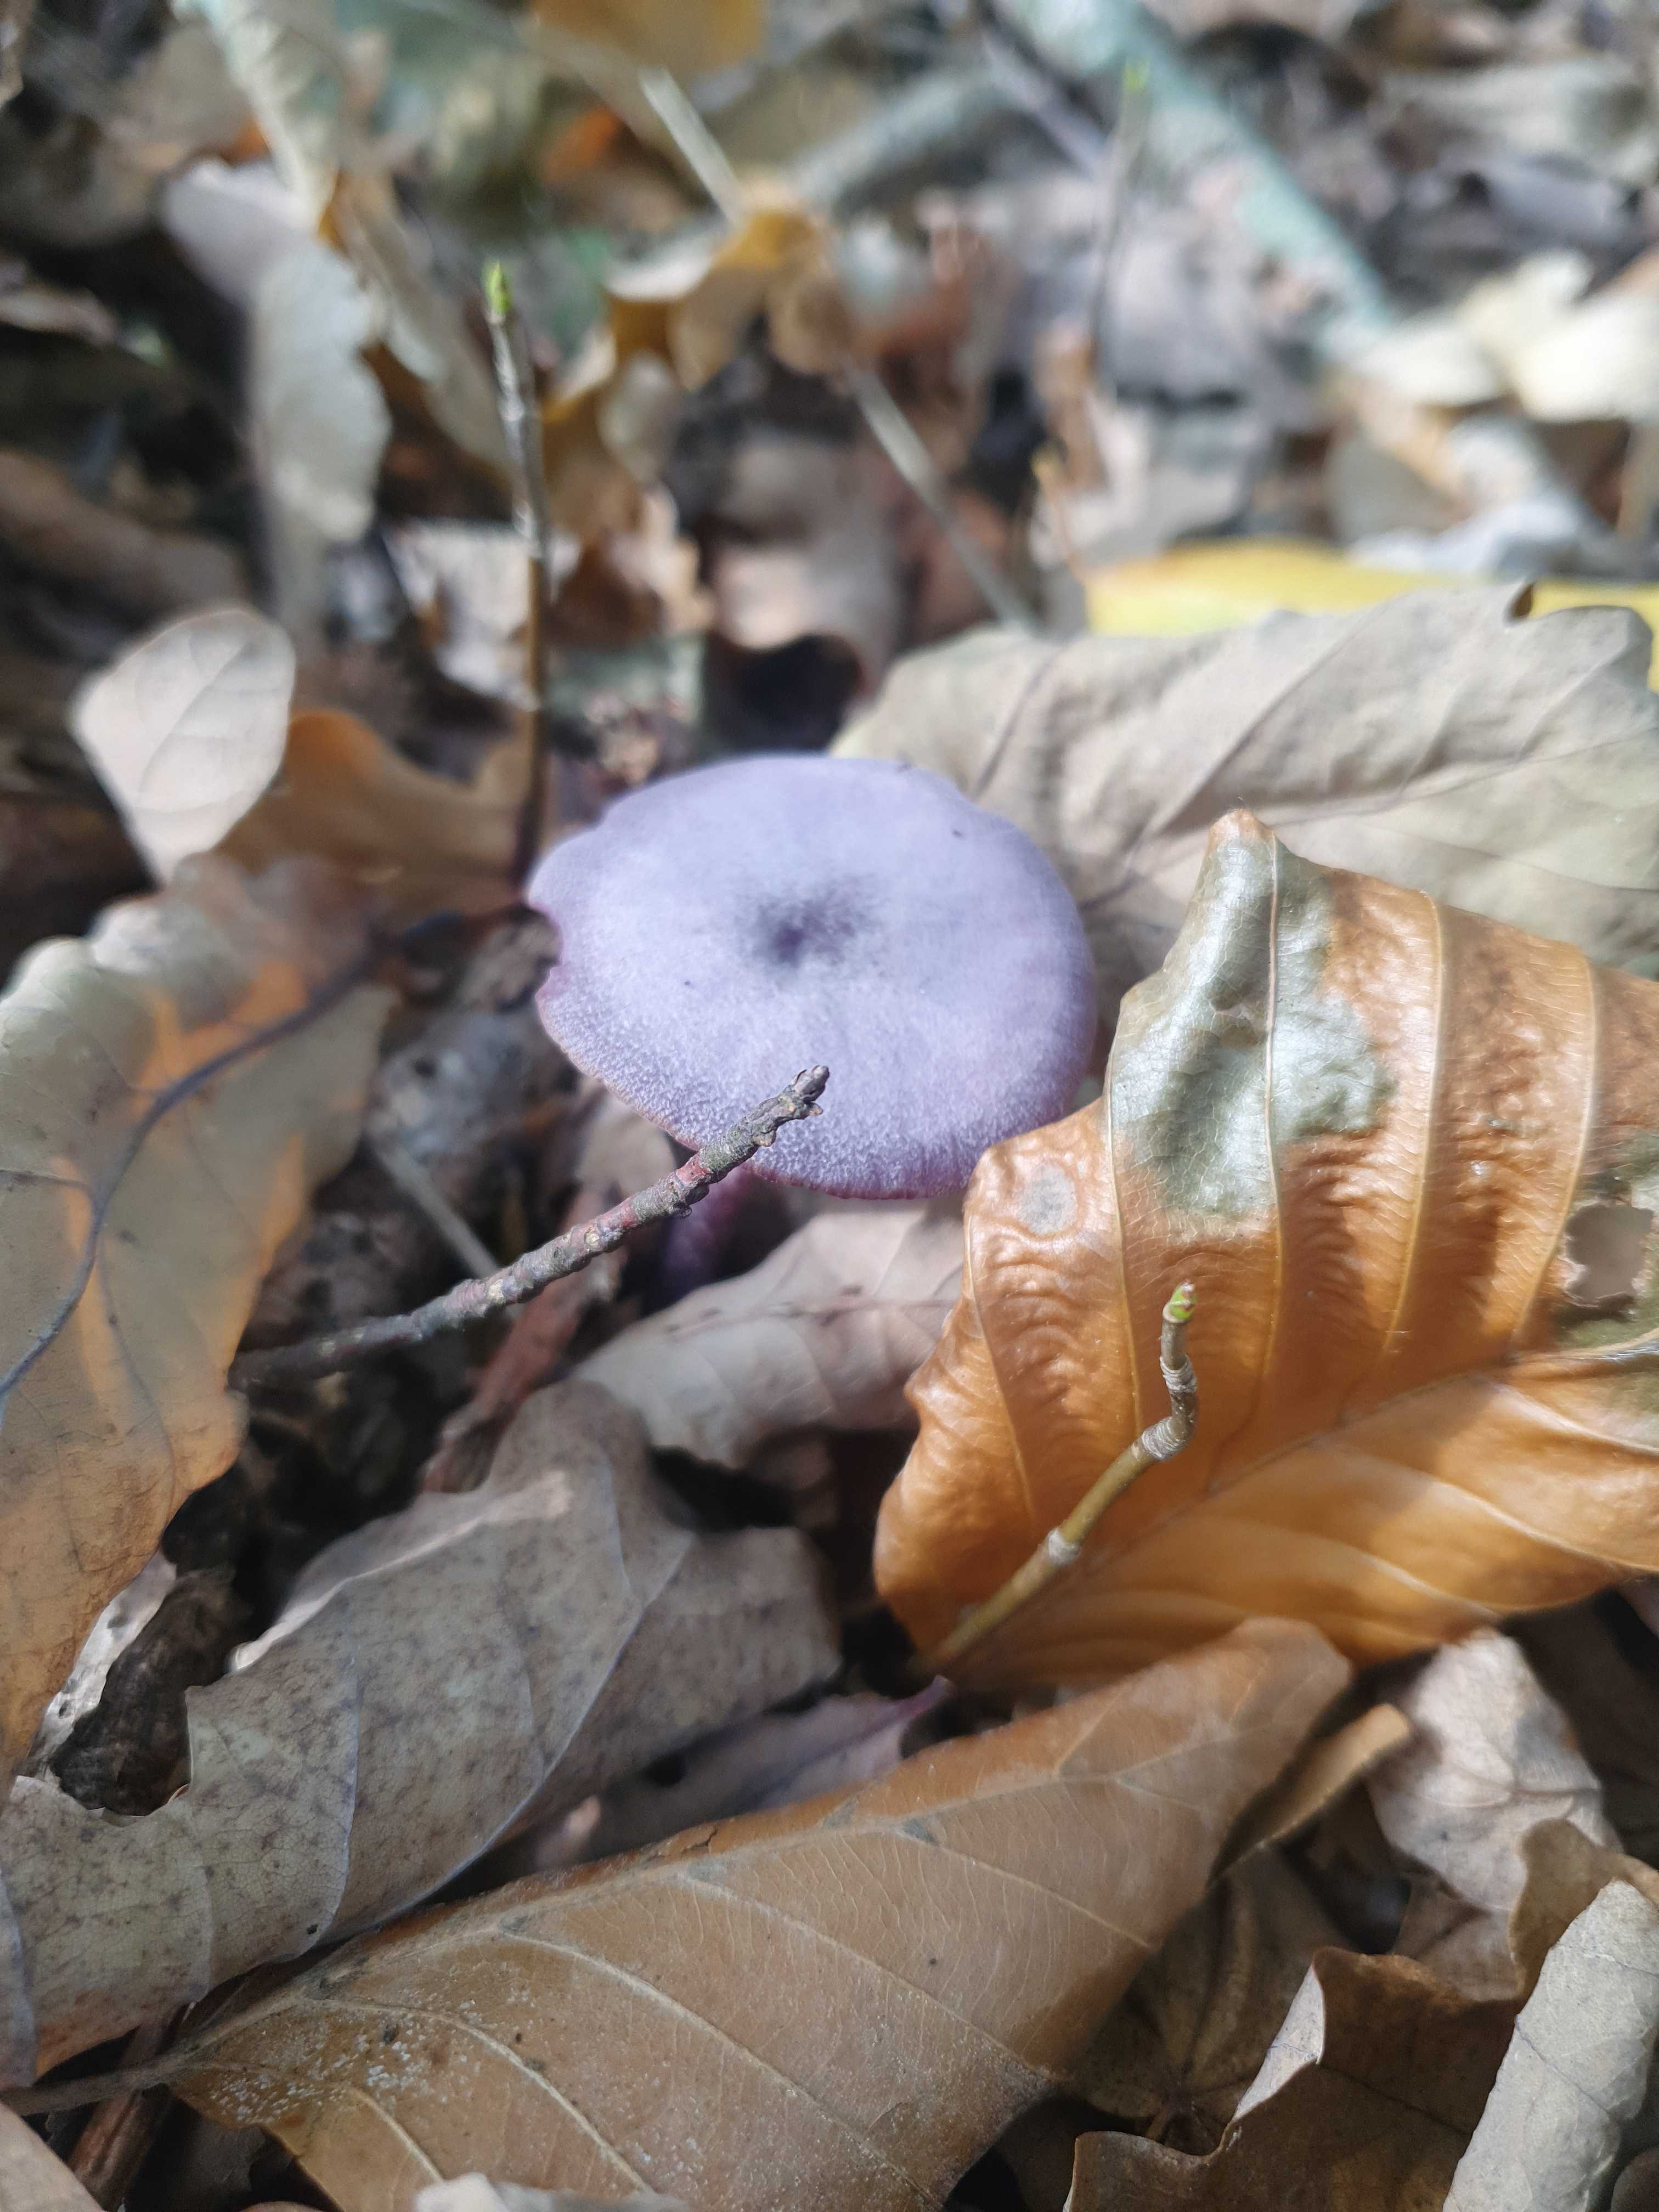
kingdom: Fungi
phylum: Basidiomycota
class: Agaricomycetes
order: Agaricales
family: Hydnangiaceae
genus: Laccaria
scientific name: Laccaria amethystina
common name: violet ametysthat
